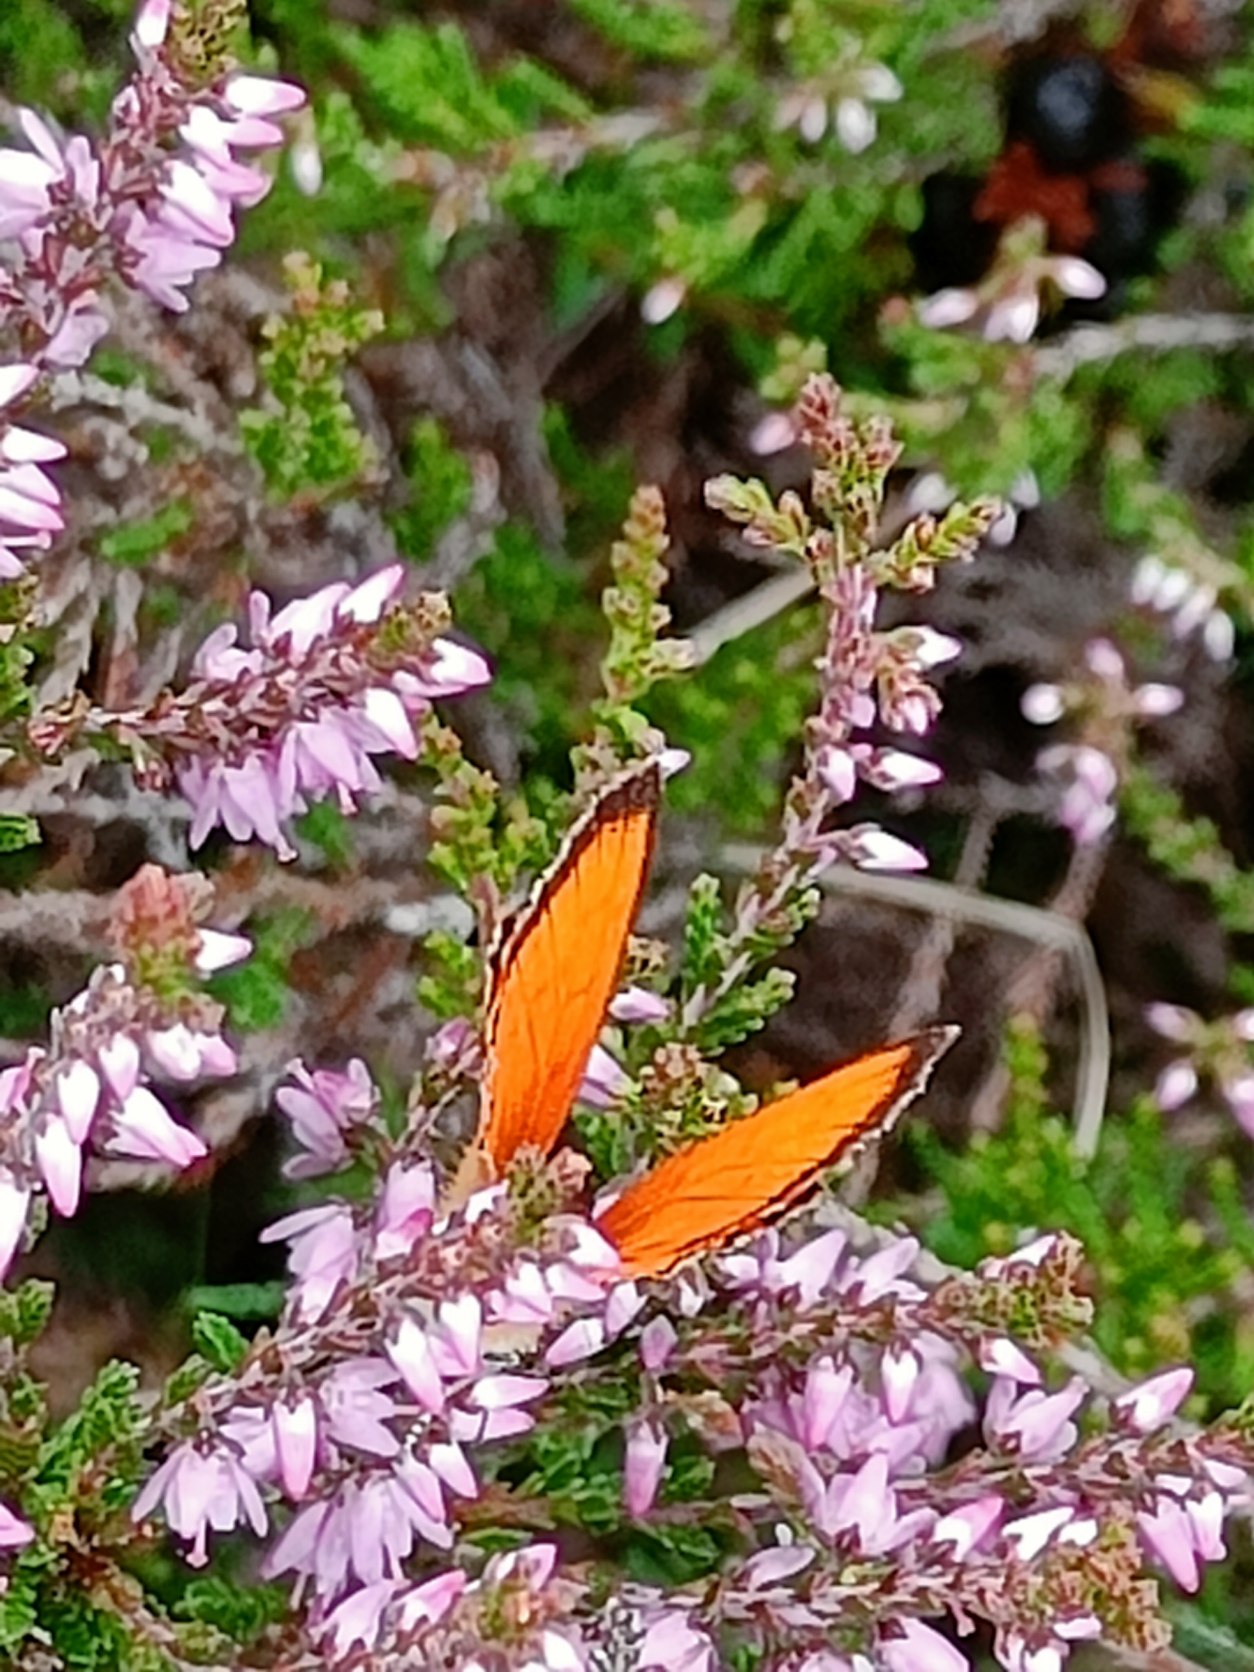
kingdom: Animalia
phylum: Arthropoda
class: Insecta
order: Lepidoptera
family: Lycaenidae
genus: Lycaena
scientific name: Lycaena virgaureae
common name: Dukatsommerfugl
